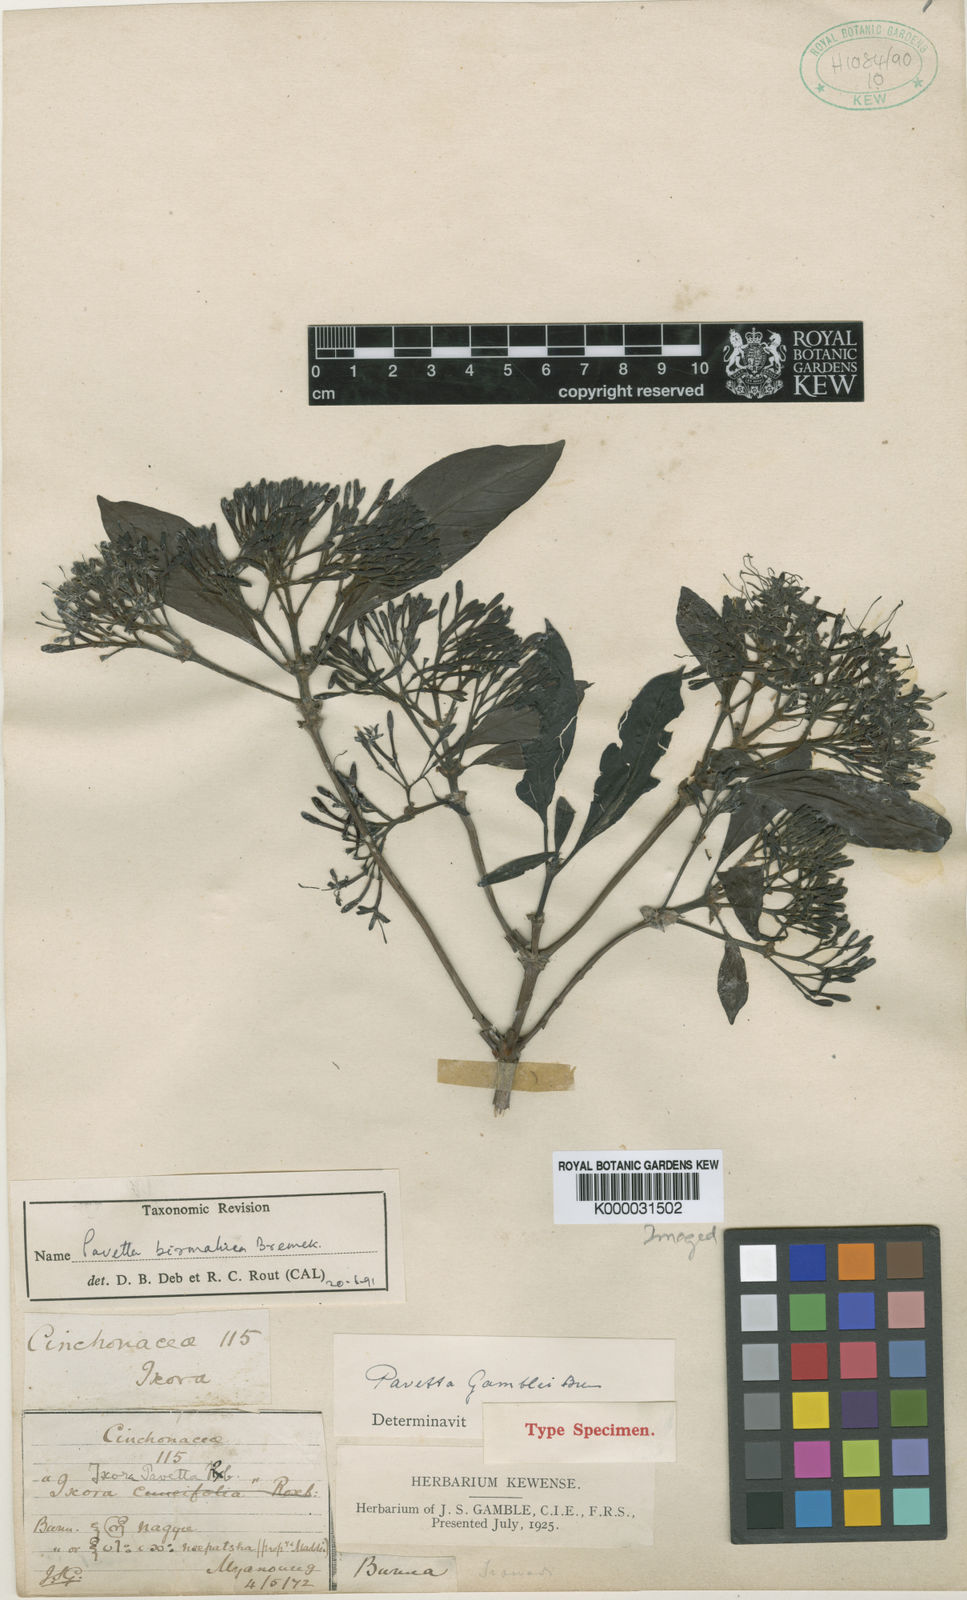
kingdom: Plantae
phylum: Tracheophyta
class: Magnoliopsida
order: Gentianales
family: Rubiaceae
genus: Pavetta
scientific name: Pavetta fruticosa
